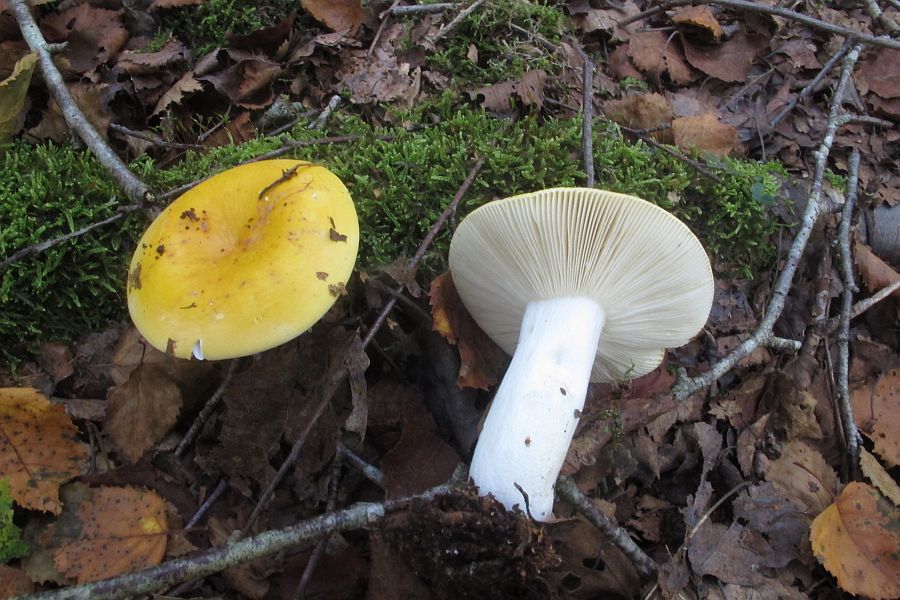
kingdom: Fungi
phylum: Basidiomycota
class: Agaricomycetes
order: Russulales
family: Russulaceae
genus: Russula
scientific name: Russula claroflava
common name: birke-skørhat
